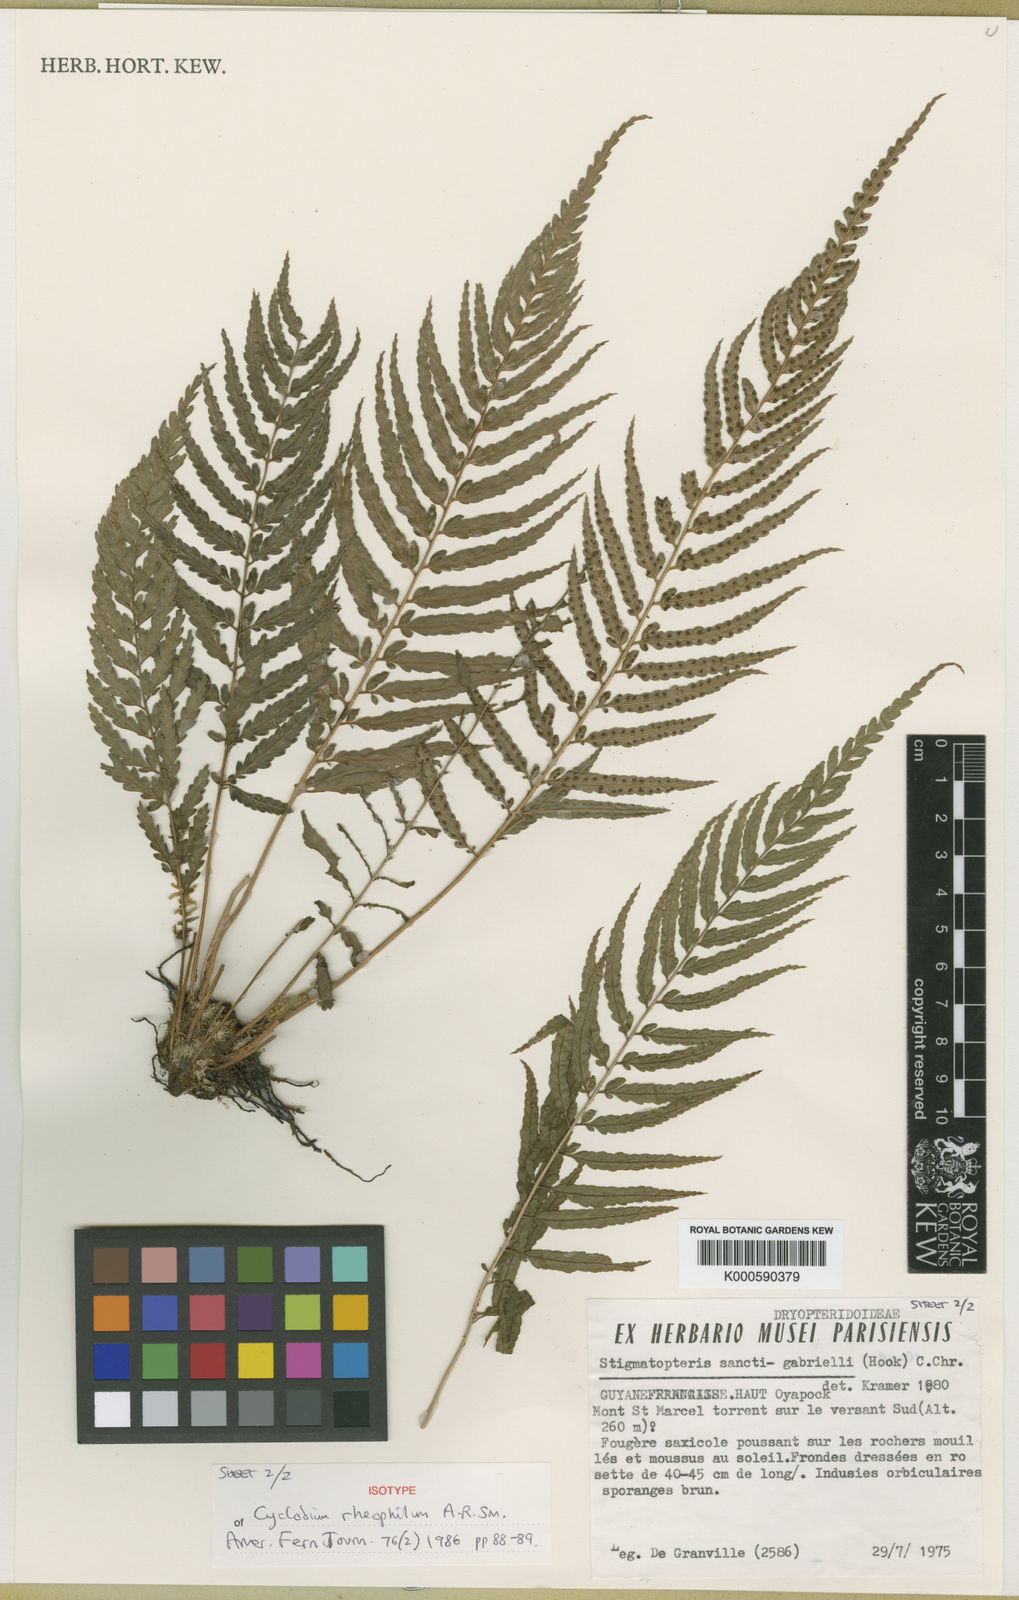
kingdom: Plantae
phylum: Tracheophyta
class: Polypodiopsida
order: Polypodiales
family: Dryopteridaceae
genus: Cyclodium
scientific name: Cyclodium rheophilum
